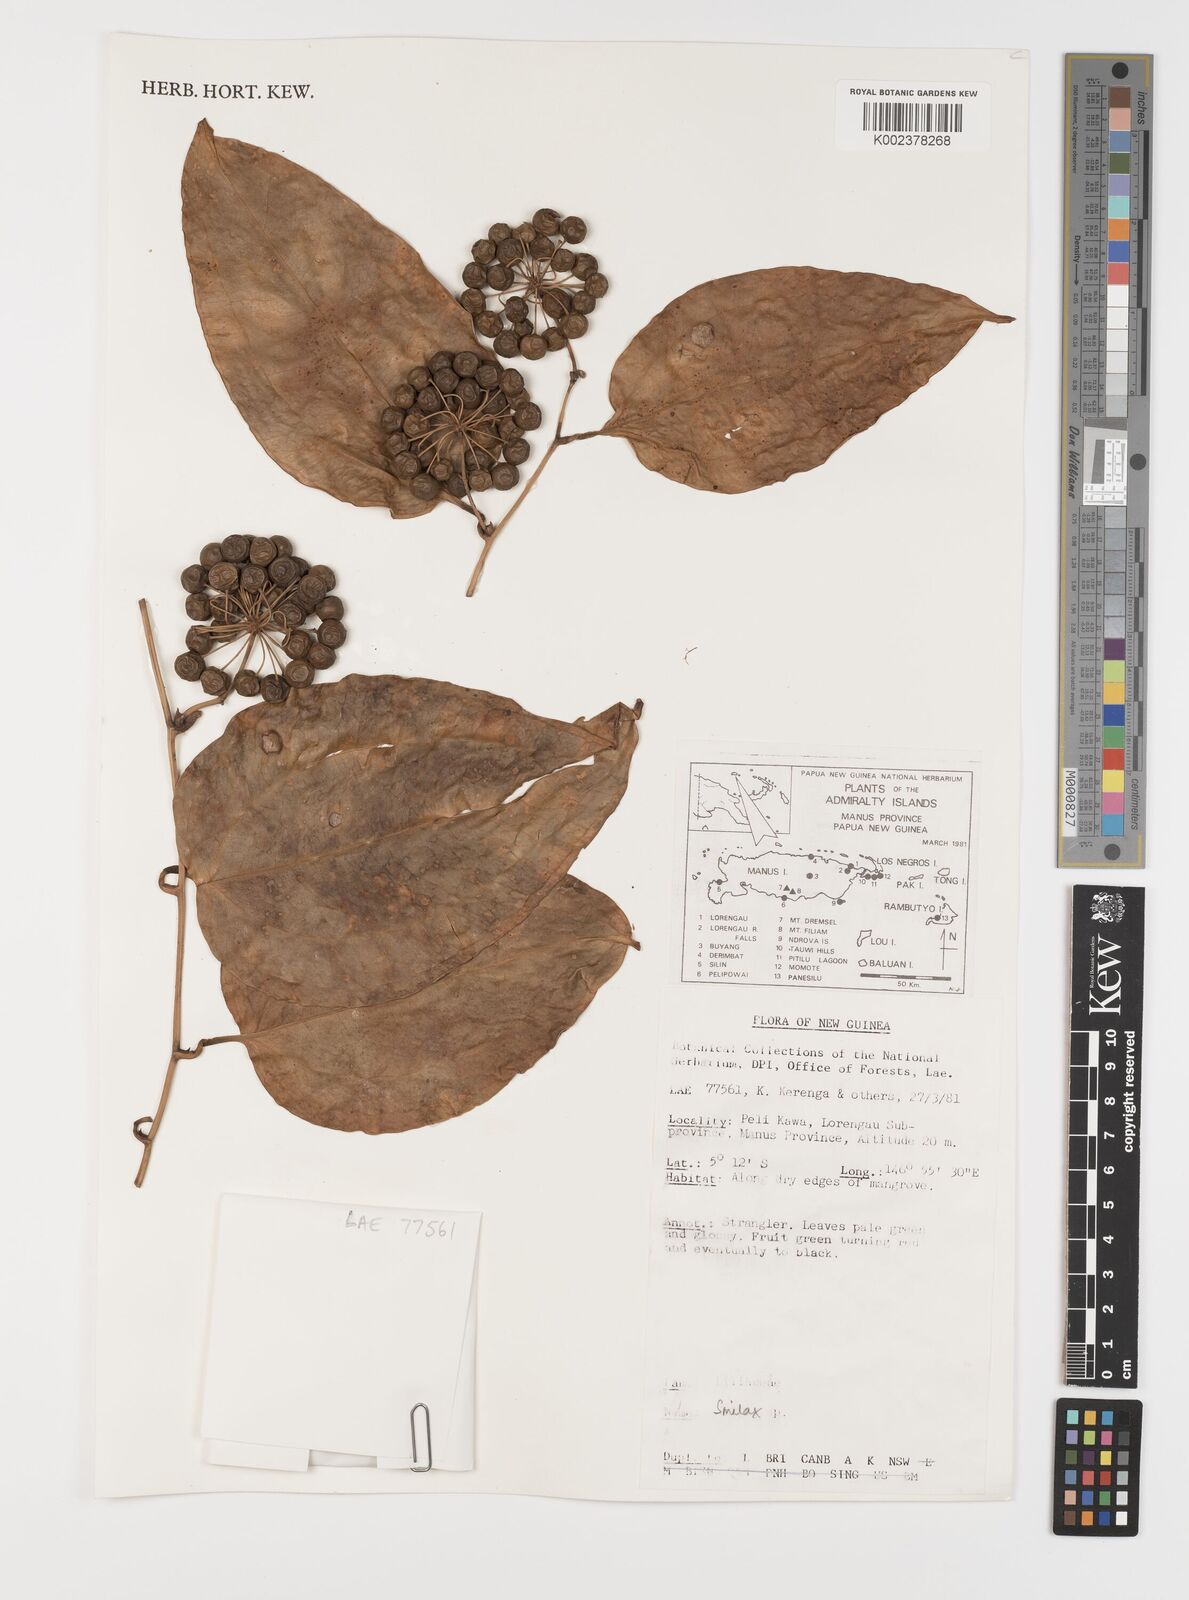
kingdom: Plantae
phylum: Tracheophyta
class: Liliopsida
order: Liliales
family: Smilacaceae
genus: Smilax
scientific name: Smilax
